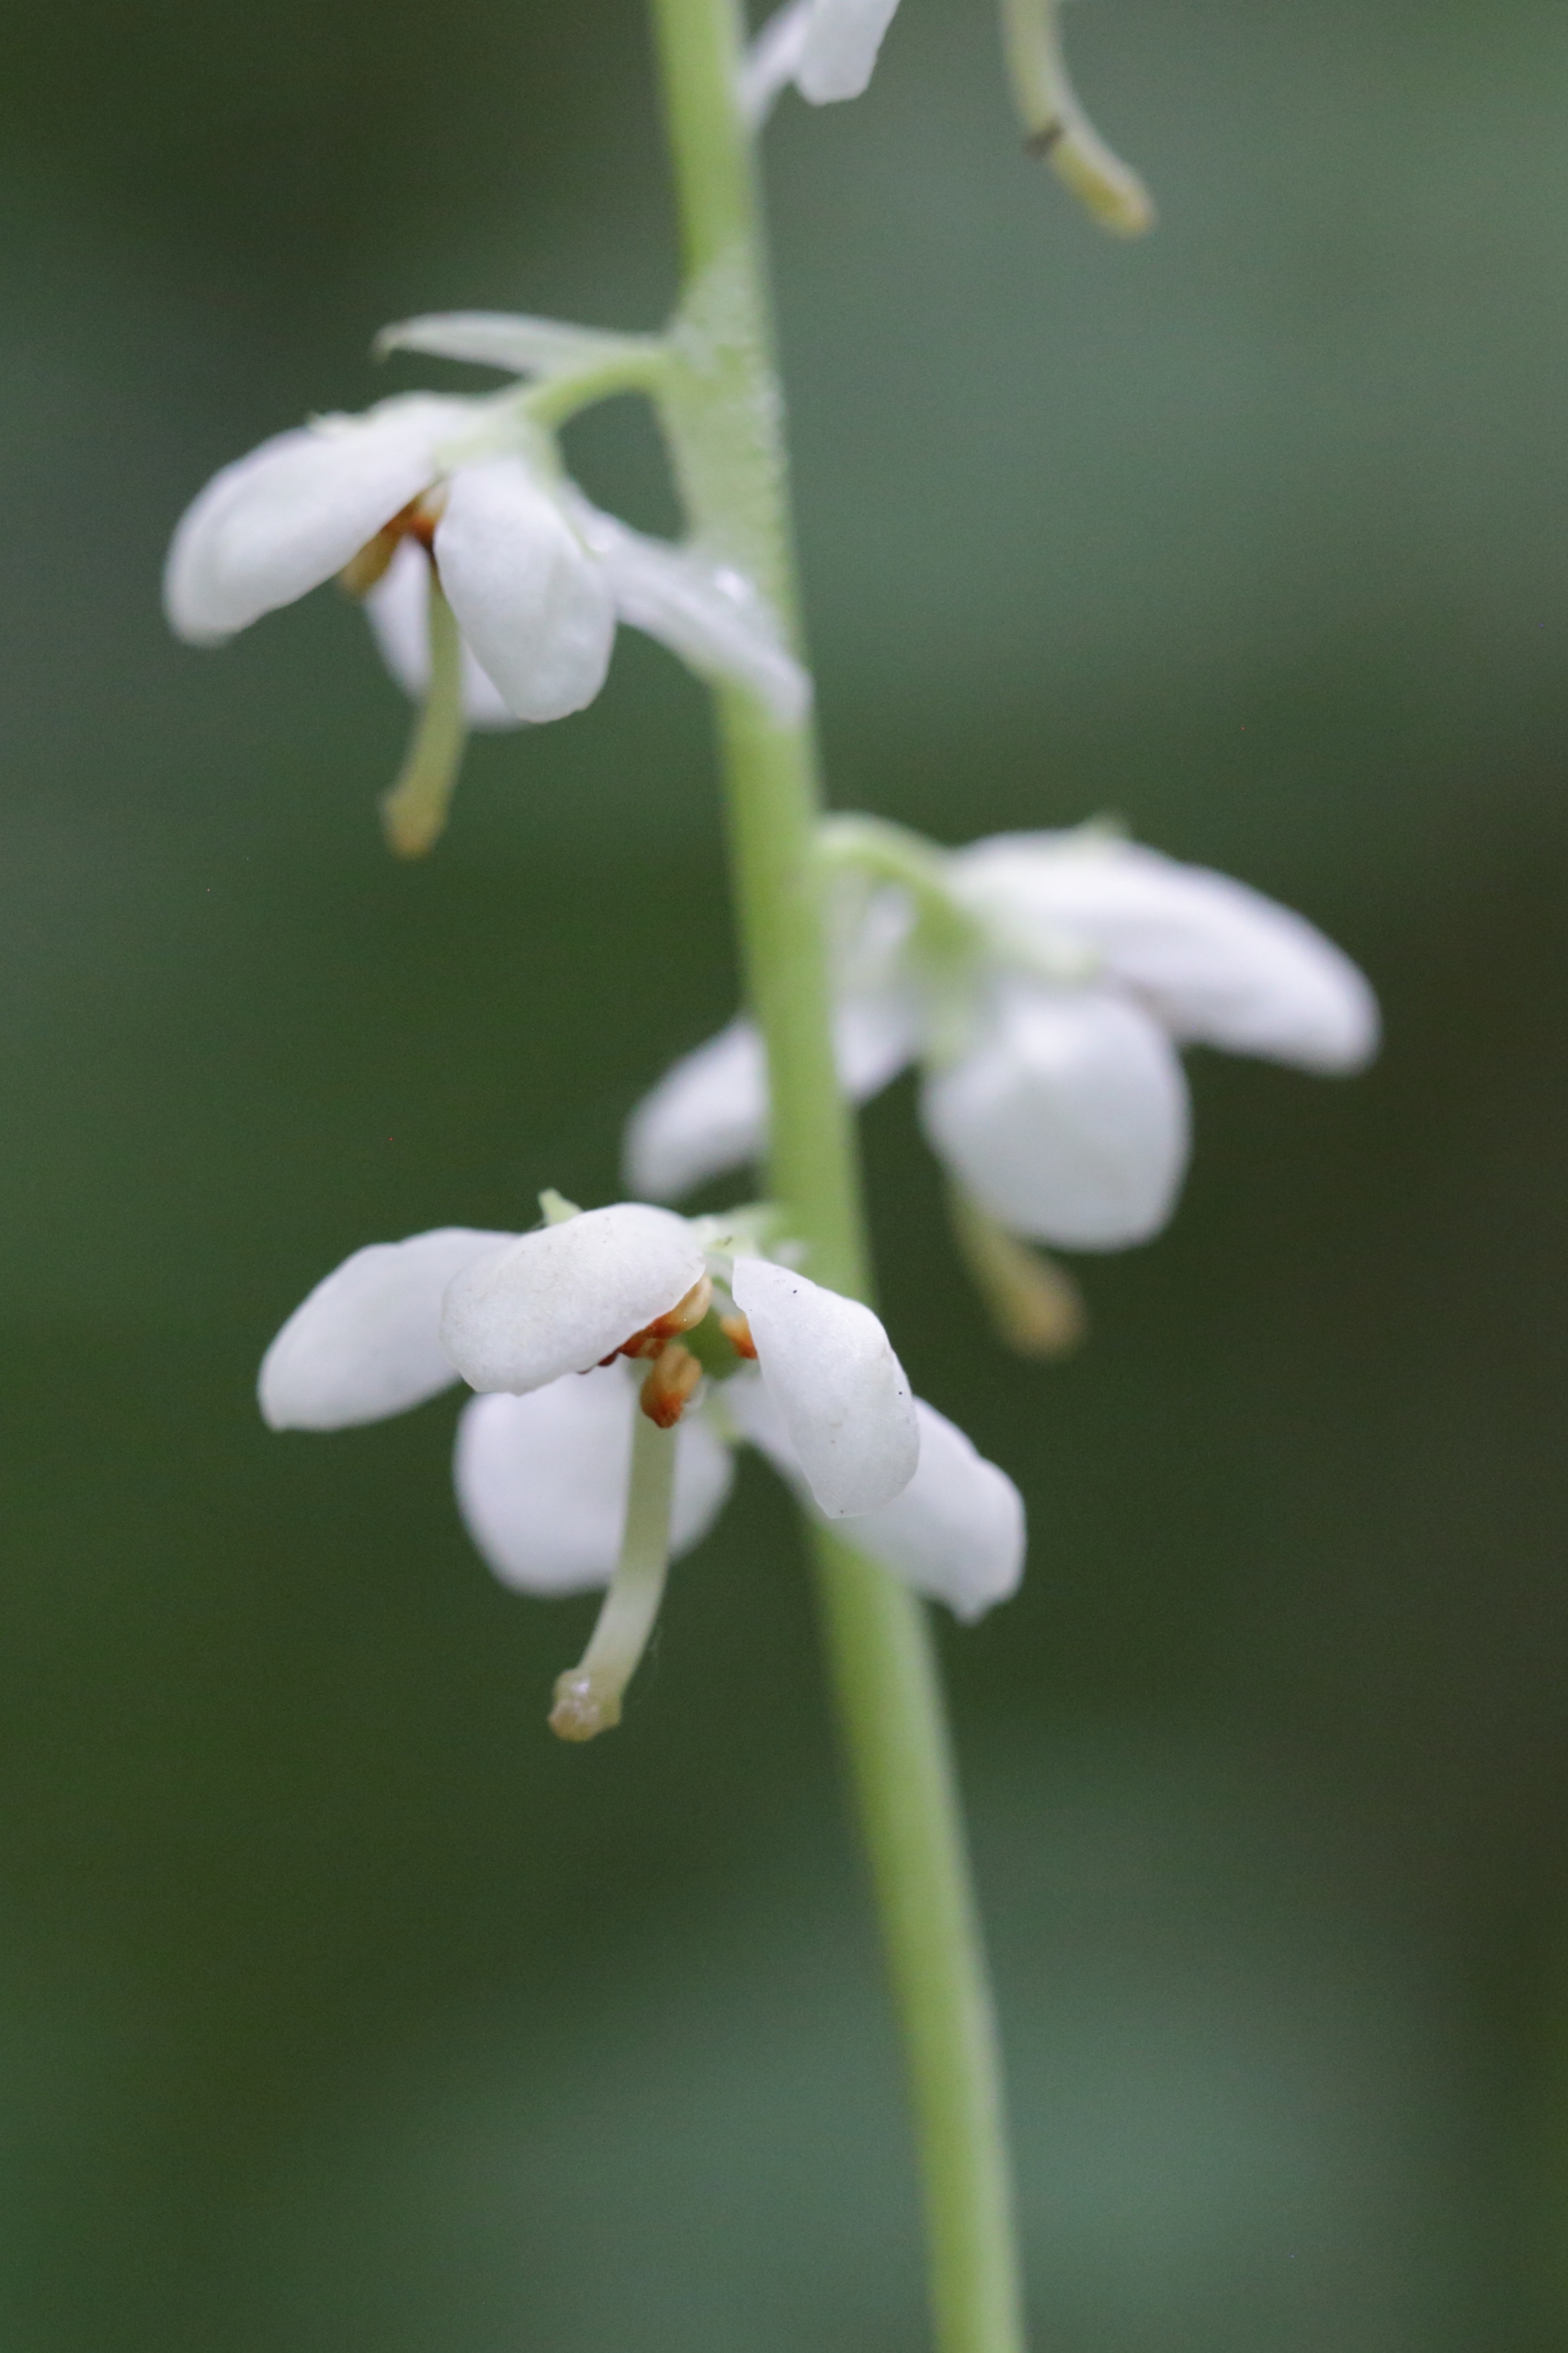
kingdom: Plantae
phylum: Tracheophyta
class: Magnoliopsida
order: Ericales
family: Ericaceae
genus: Pyrola
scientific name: Pyrola rotundifolia
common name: Mose-vintergrøn
